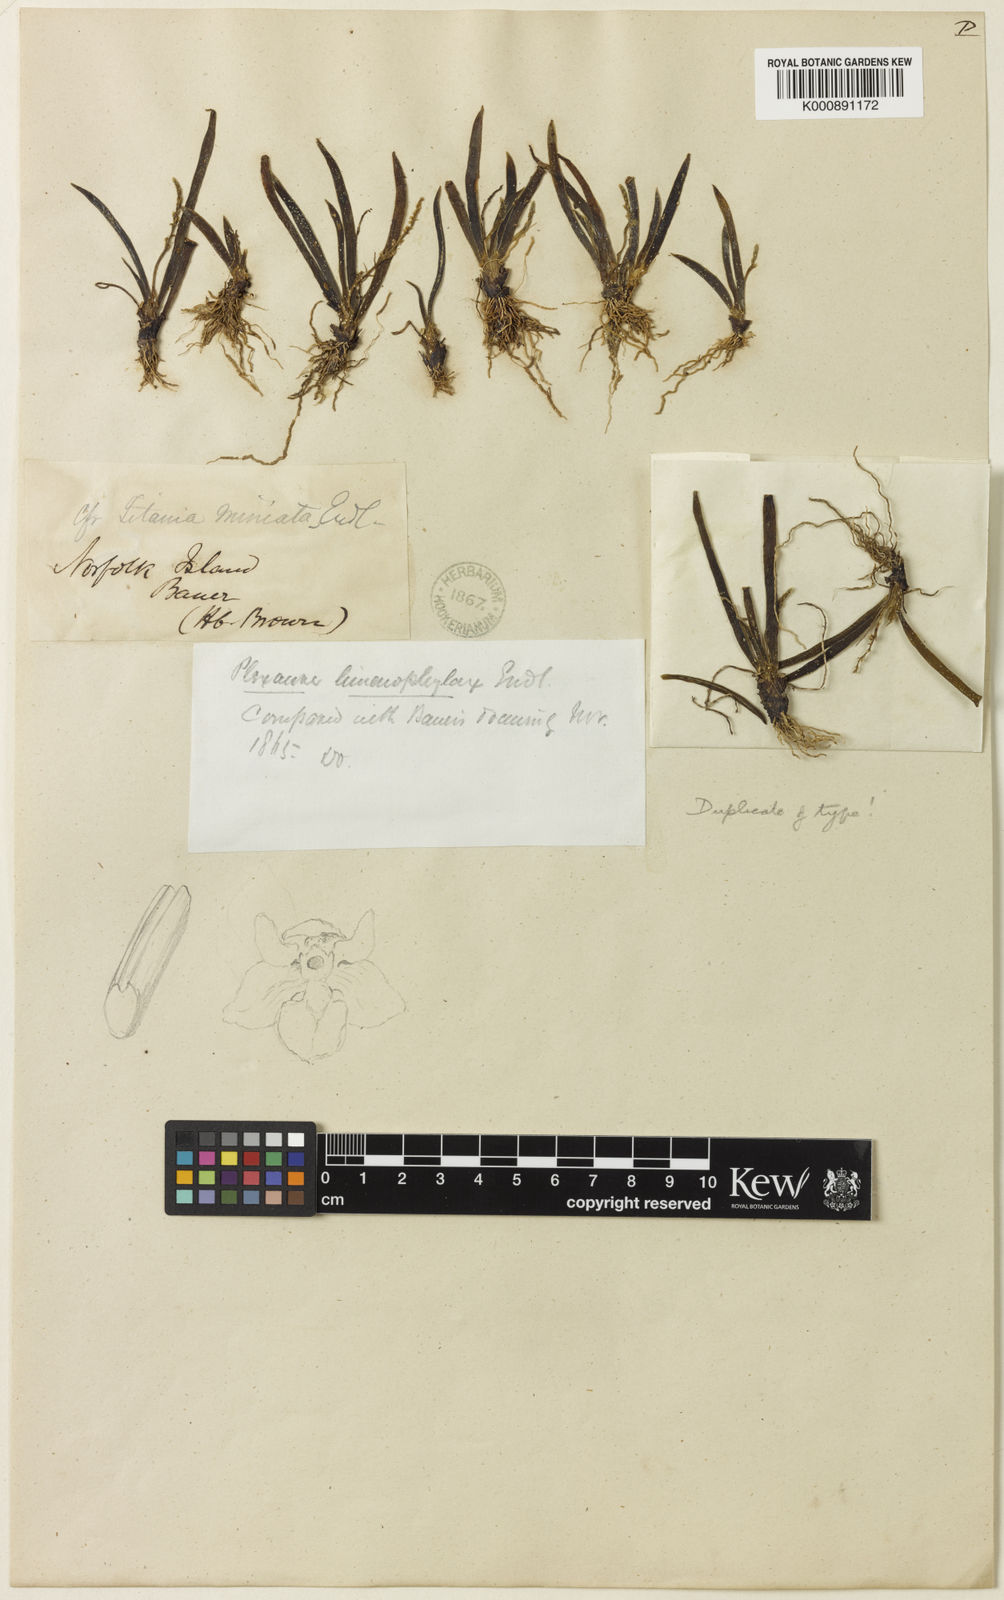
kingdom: Plantae
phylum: Tracheophyta
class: Liliopsida
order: Asparagales
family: Orchidaceae
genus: Phreatia
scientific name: Phreatia limenophylax
